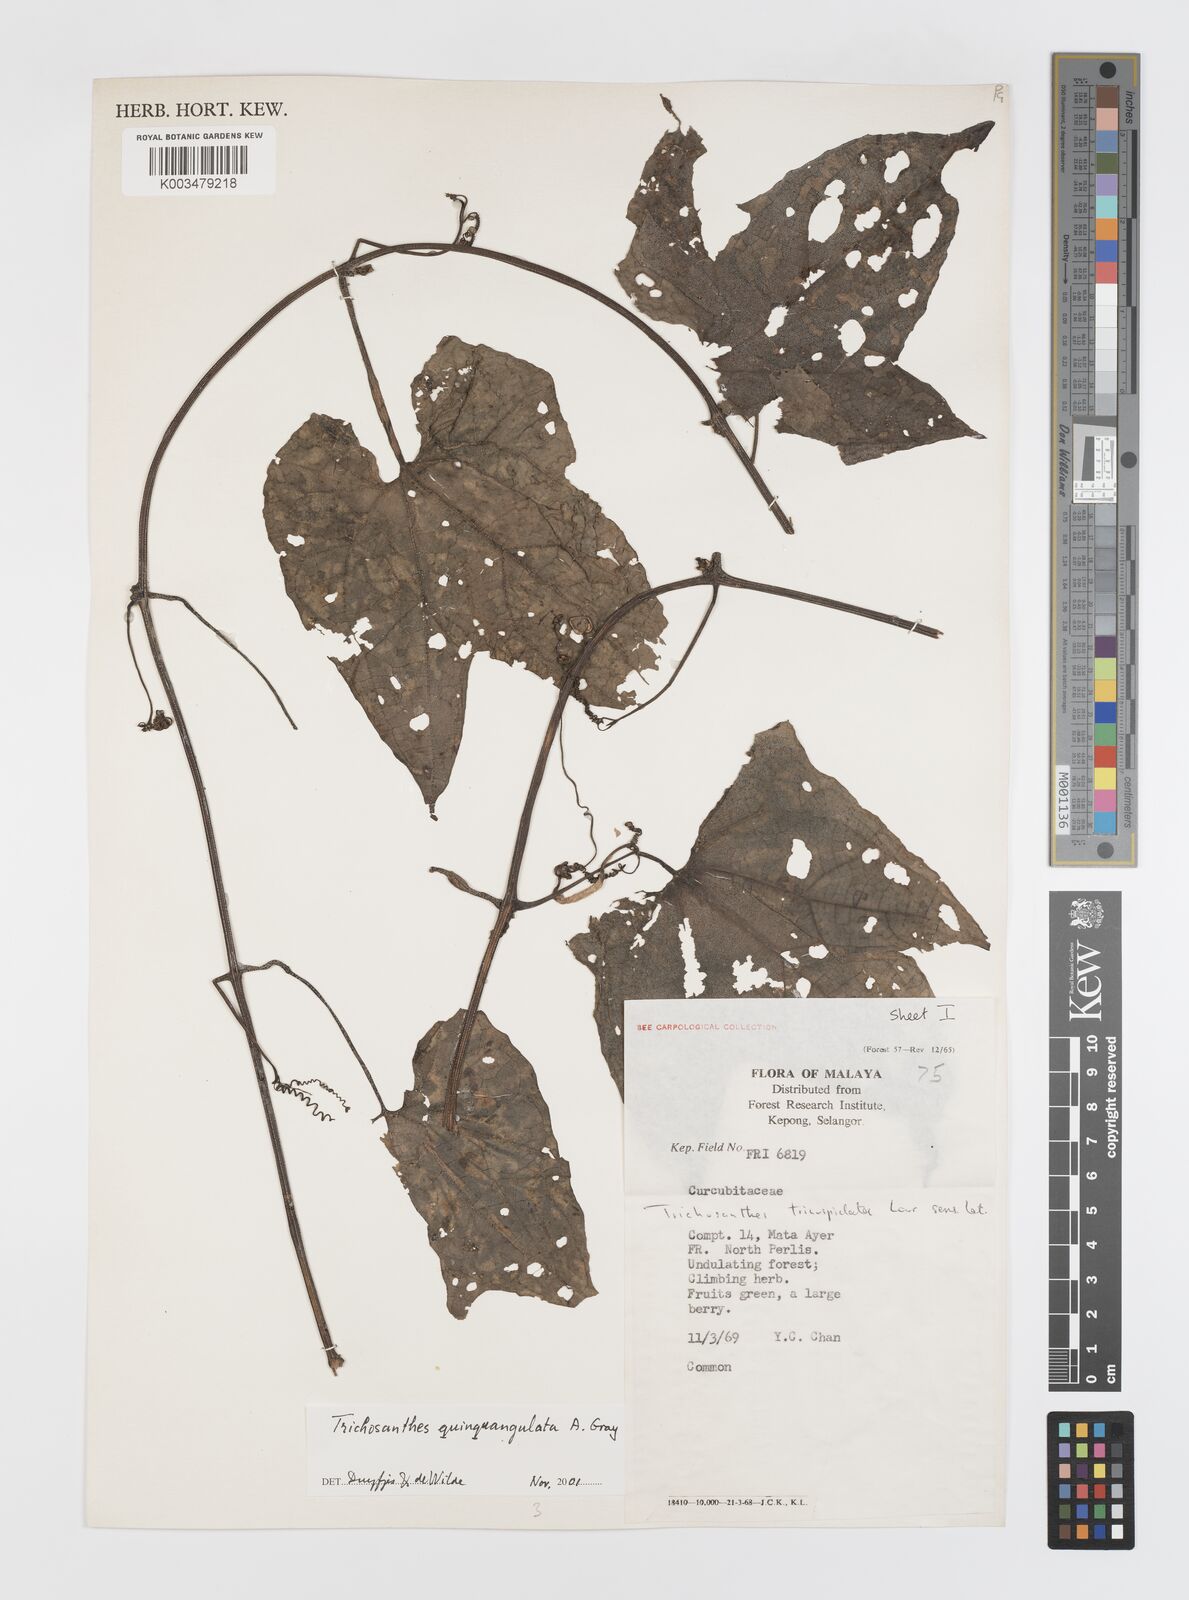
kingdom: Plantae
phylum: Tracheophyta
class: Magnoliopsida
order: Cucurbitales
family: Cucurbitaceae
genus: Trichosanthes
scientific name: Trichosanthes quinquangulata
